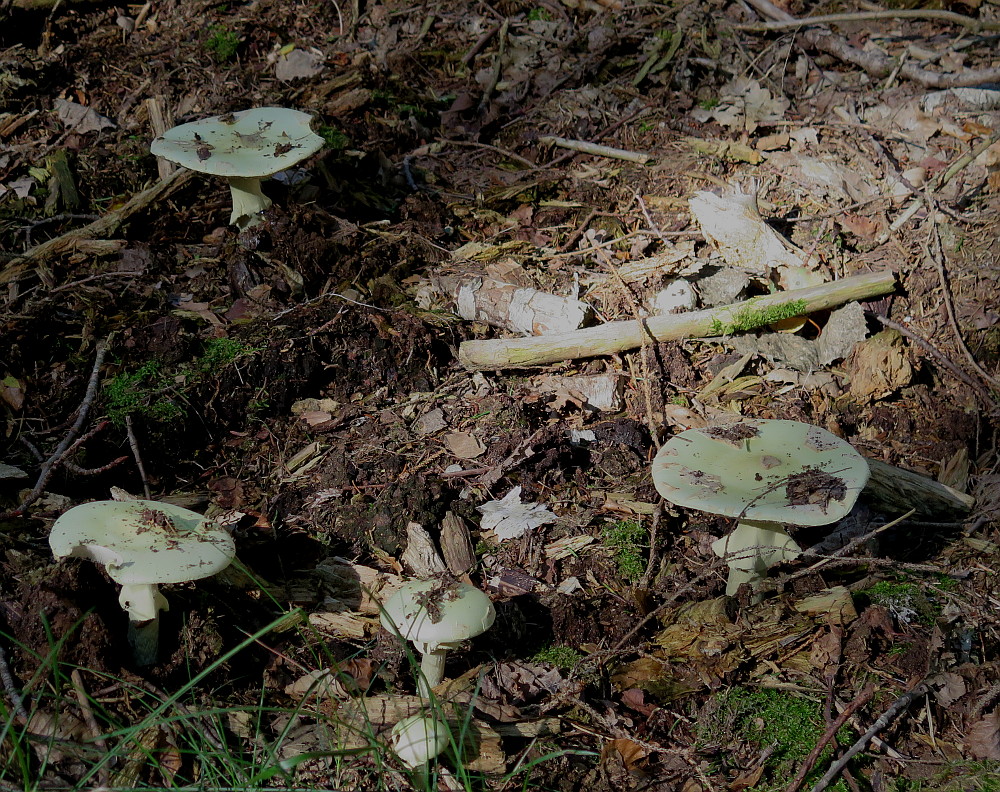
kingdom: Fungi
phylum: Basidiomycota
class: Agaricomycetes
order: Agaricales
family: Amanitaceae
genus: Amanita
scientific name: Amanita citrina
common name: kugleknoldet fluesvamp
